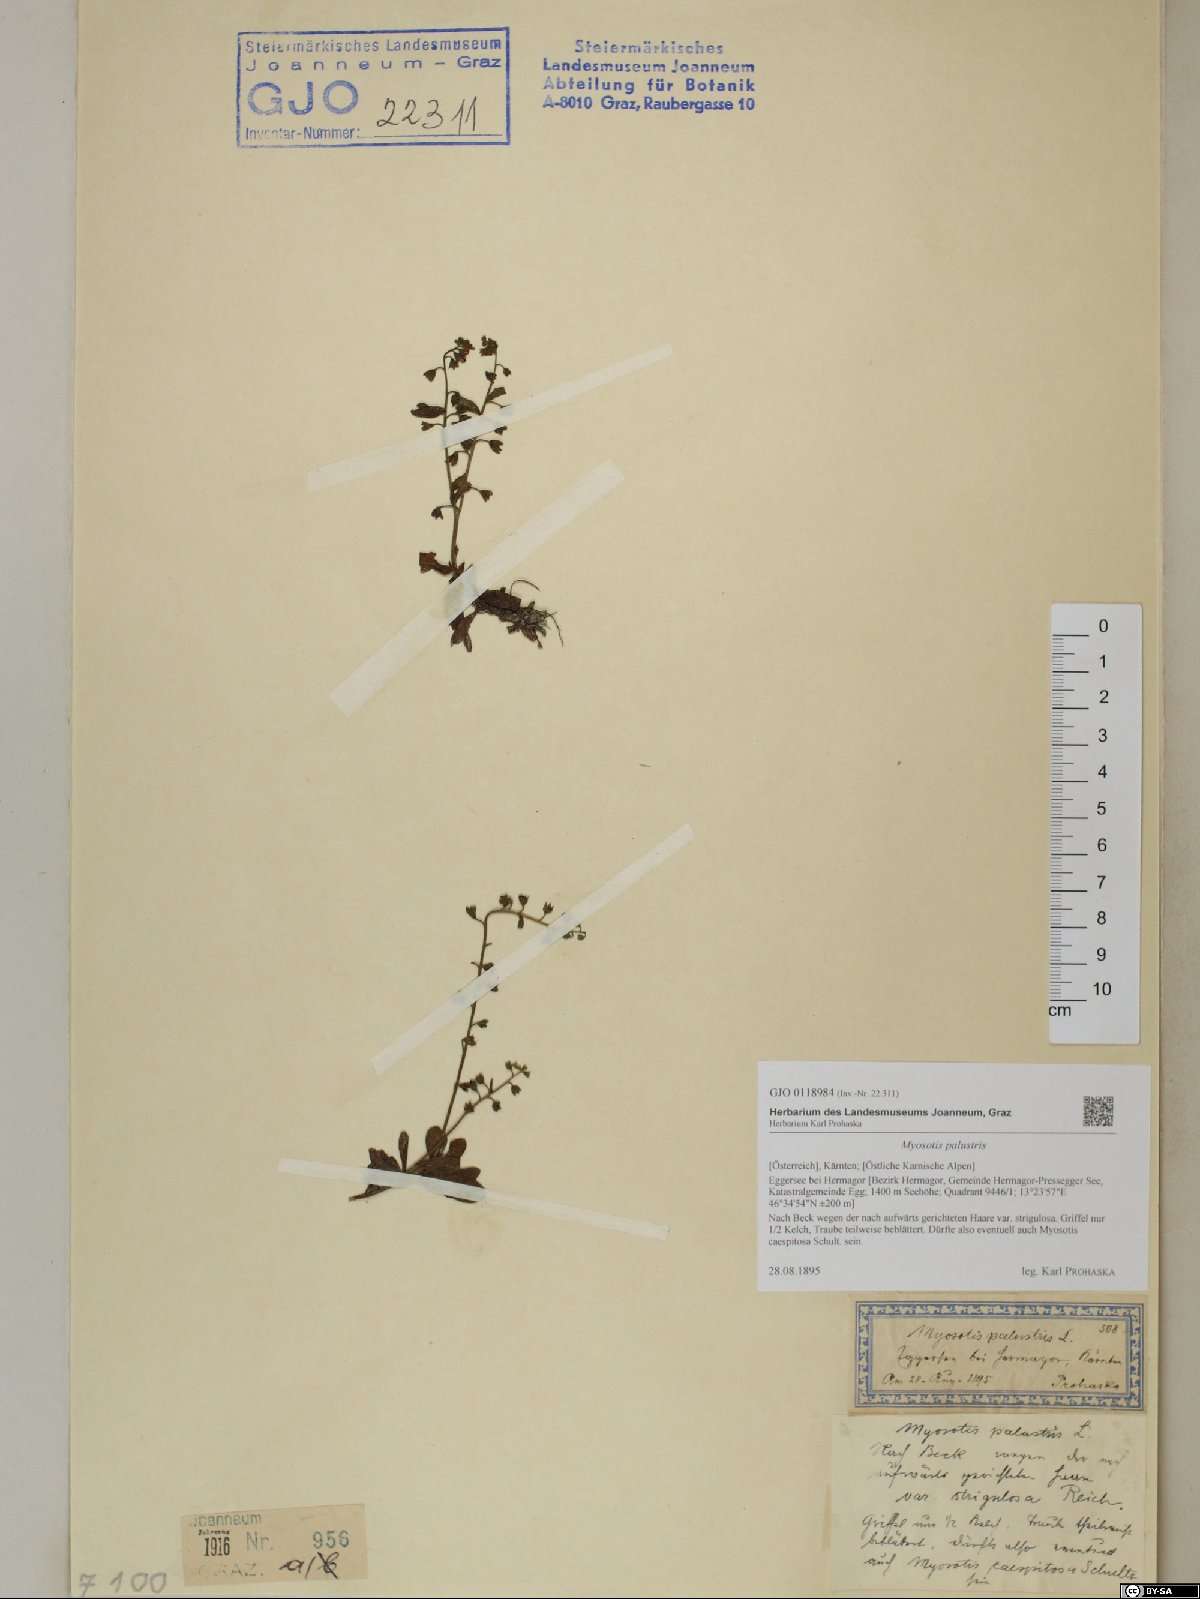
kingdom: Plantae
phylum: Tracheophyta
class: Magnoliopsida
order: Boraginales
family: Boraginaceae
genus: Myosotis
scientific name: Myosotis scorpioides
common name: Water forget-me-not
